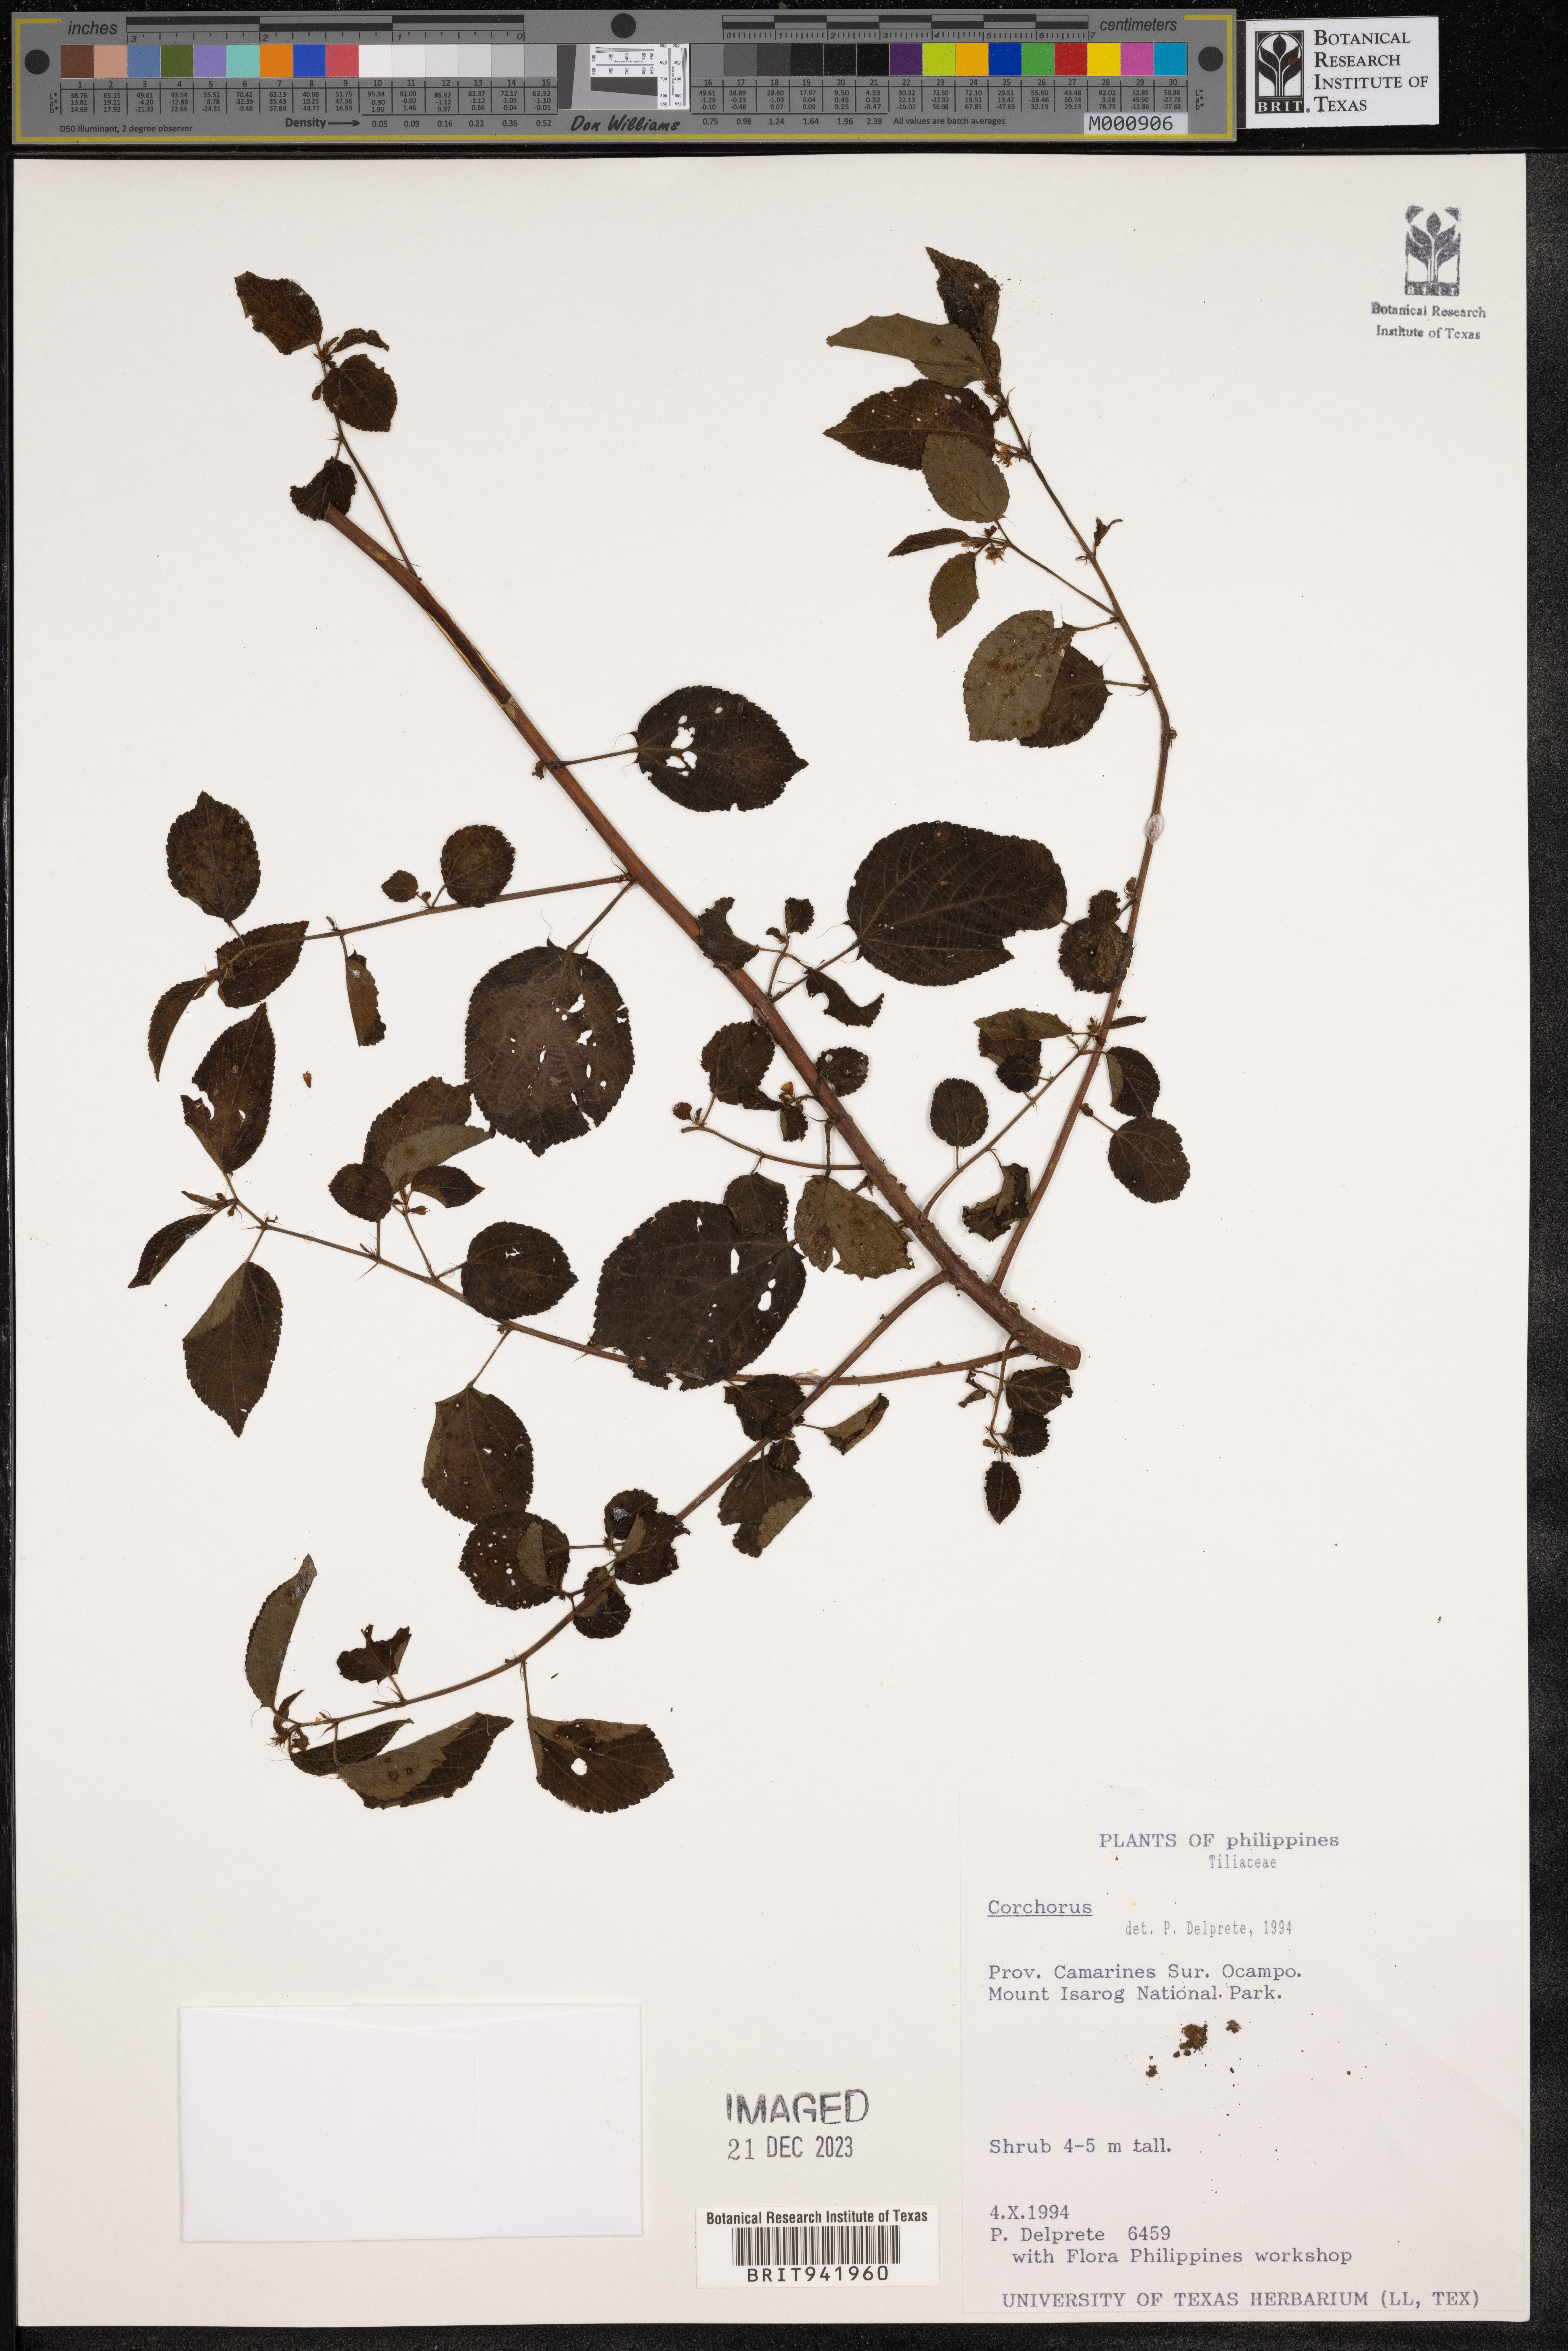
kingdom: Plantae
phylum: Tracheophyta
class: Magnoliopsida
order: Malvales
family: Malvaceae
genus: Corchorus
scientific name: Corchorus
